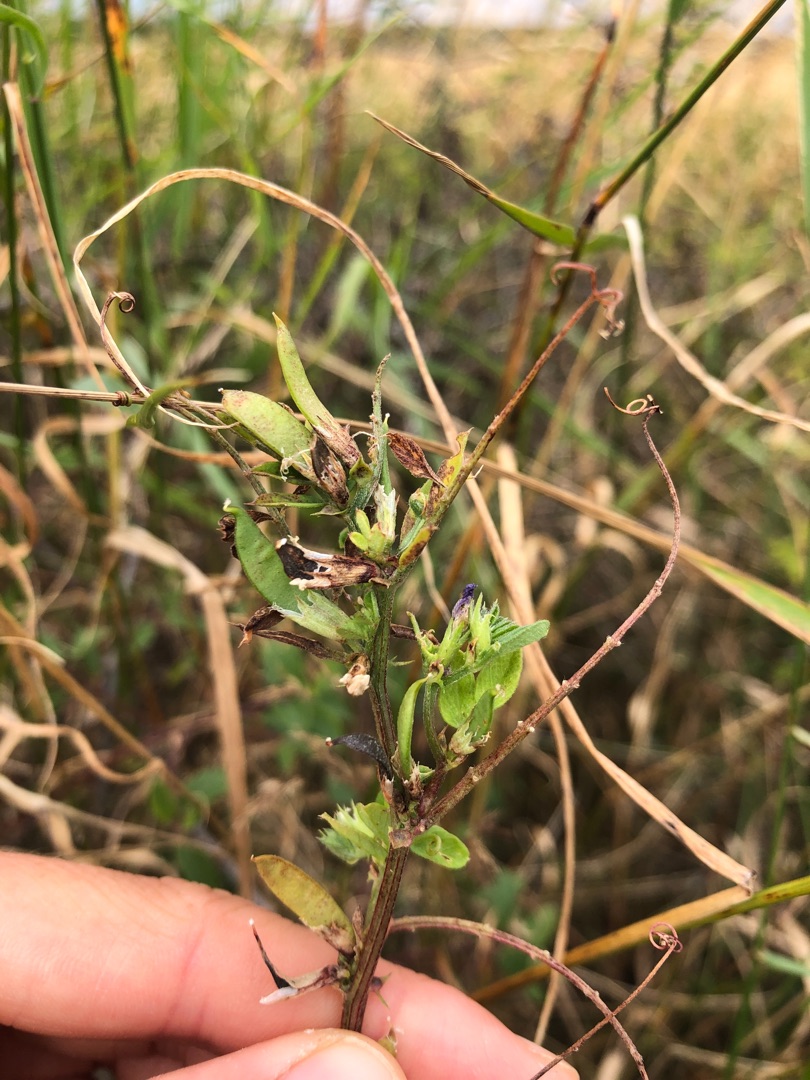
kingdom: Plantae
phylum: Tracheophyta
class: Magnoliopsida
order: Fabales
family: Fabaceae
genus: Vicia
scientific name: Vicia sativa
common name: Ager-vikke
